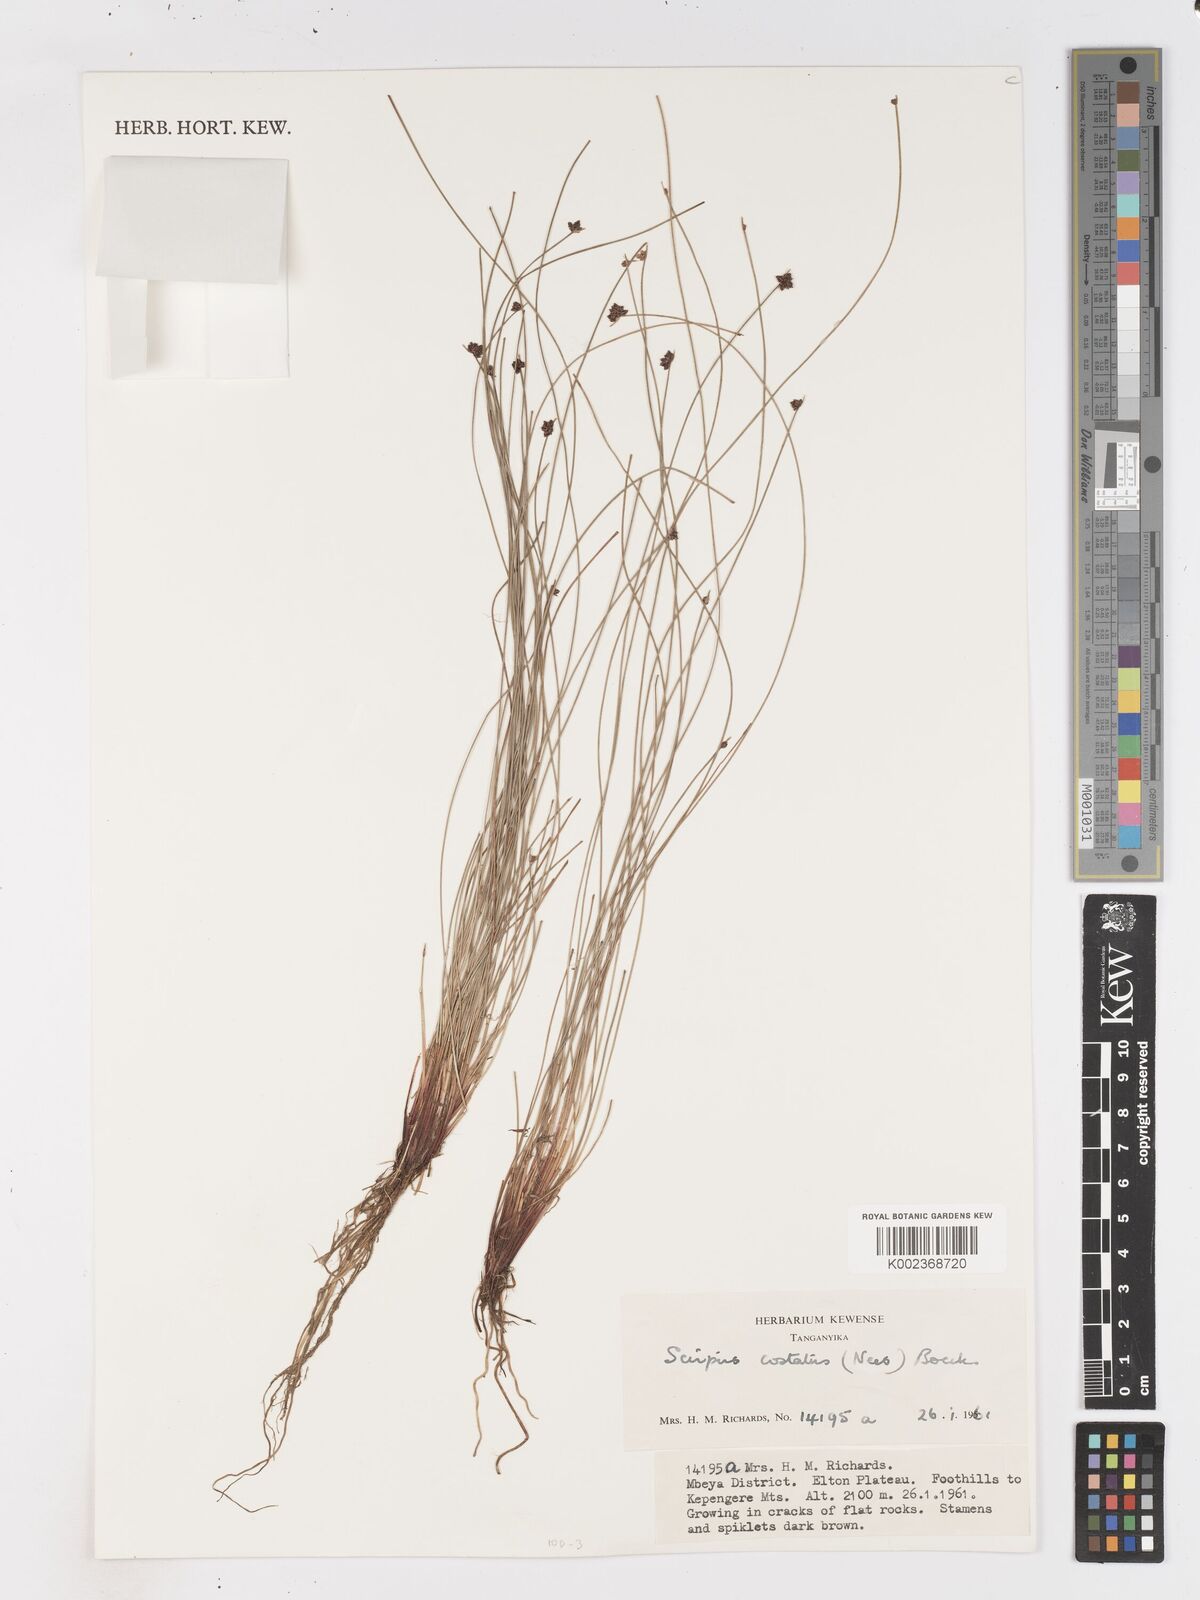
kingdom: Plantae
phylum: Tracheophyta
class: Liliopsida
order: Poales
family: Cyperaceae
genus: Isolepis
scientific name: Isolepis costata
